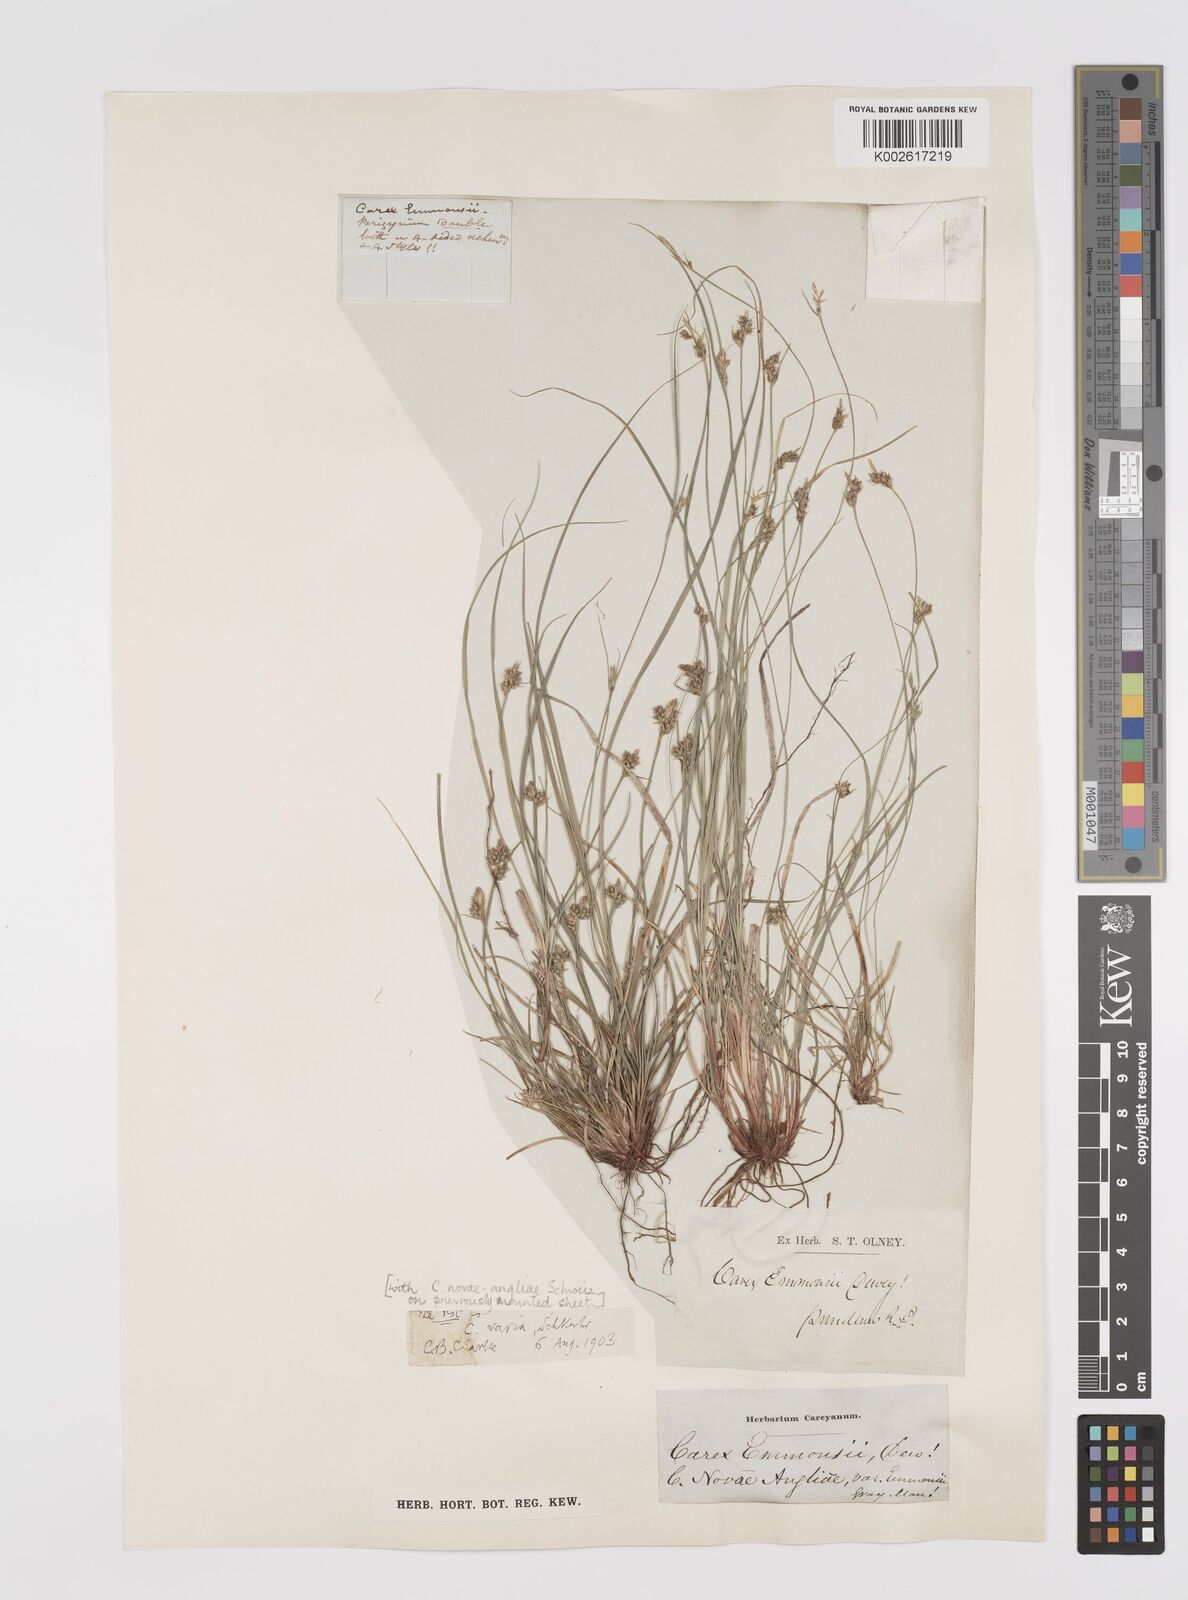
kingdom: Plantae
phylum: Tracheophyta
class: Liliopsida
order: Poales
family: Cyperaceae
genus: Carex
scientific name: Carex albicans
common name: Bellow-beaked sedge
